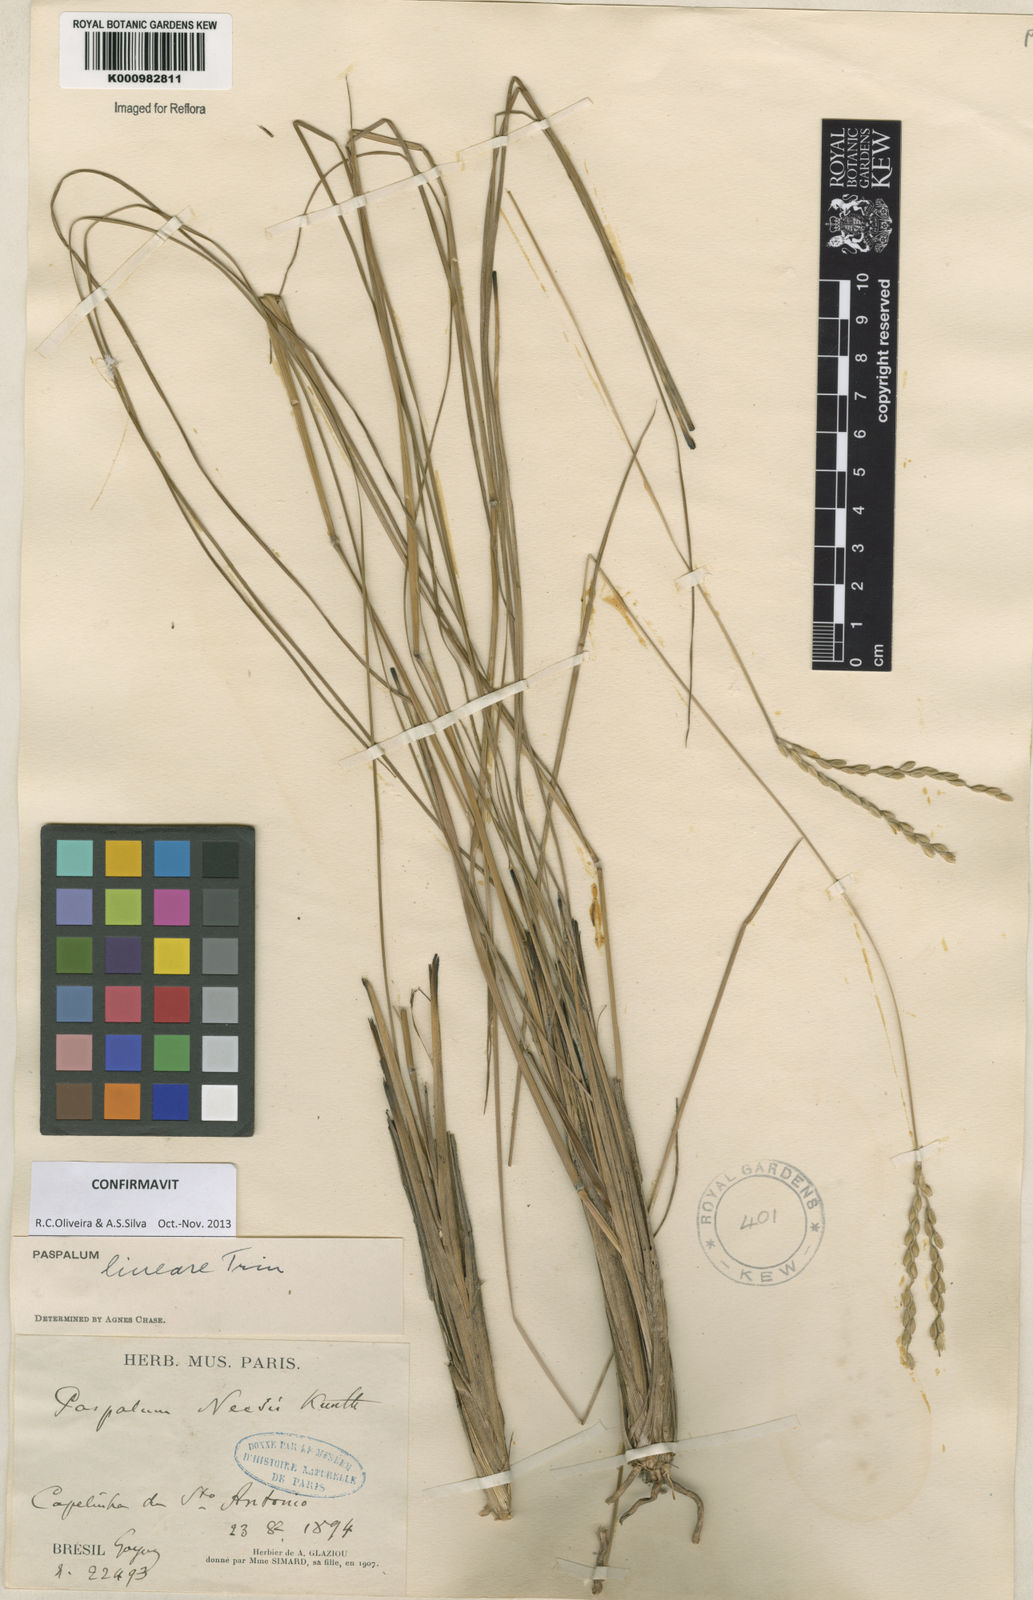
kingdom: Plantae
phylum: Tracheophyta
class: Liliopsida
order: Poales
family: Poaceae
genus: Paspalum
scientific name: Paspalum lineare
